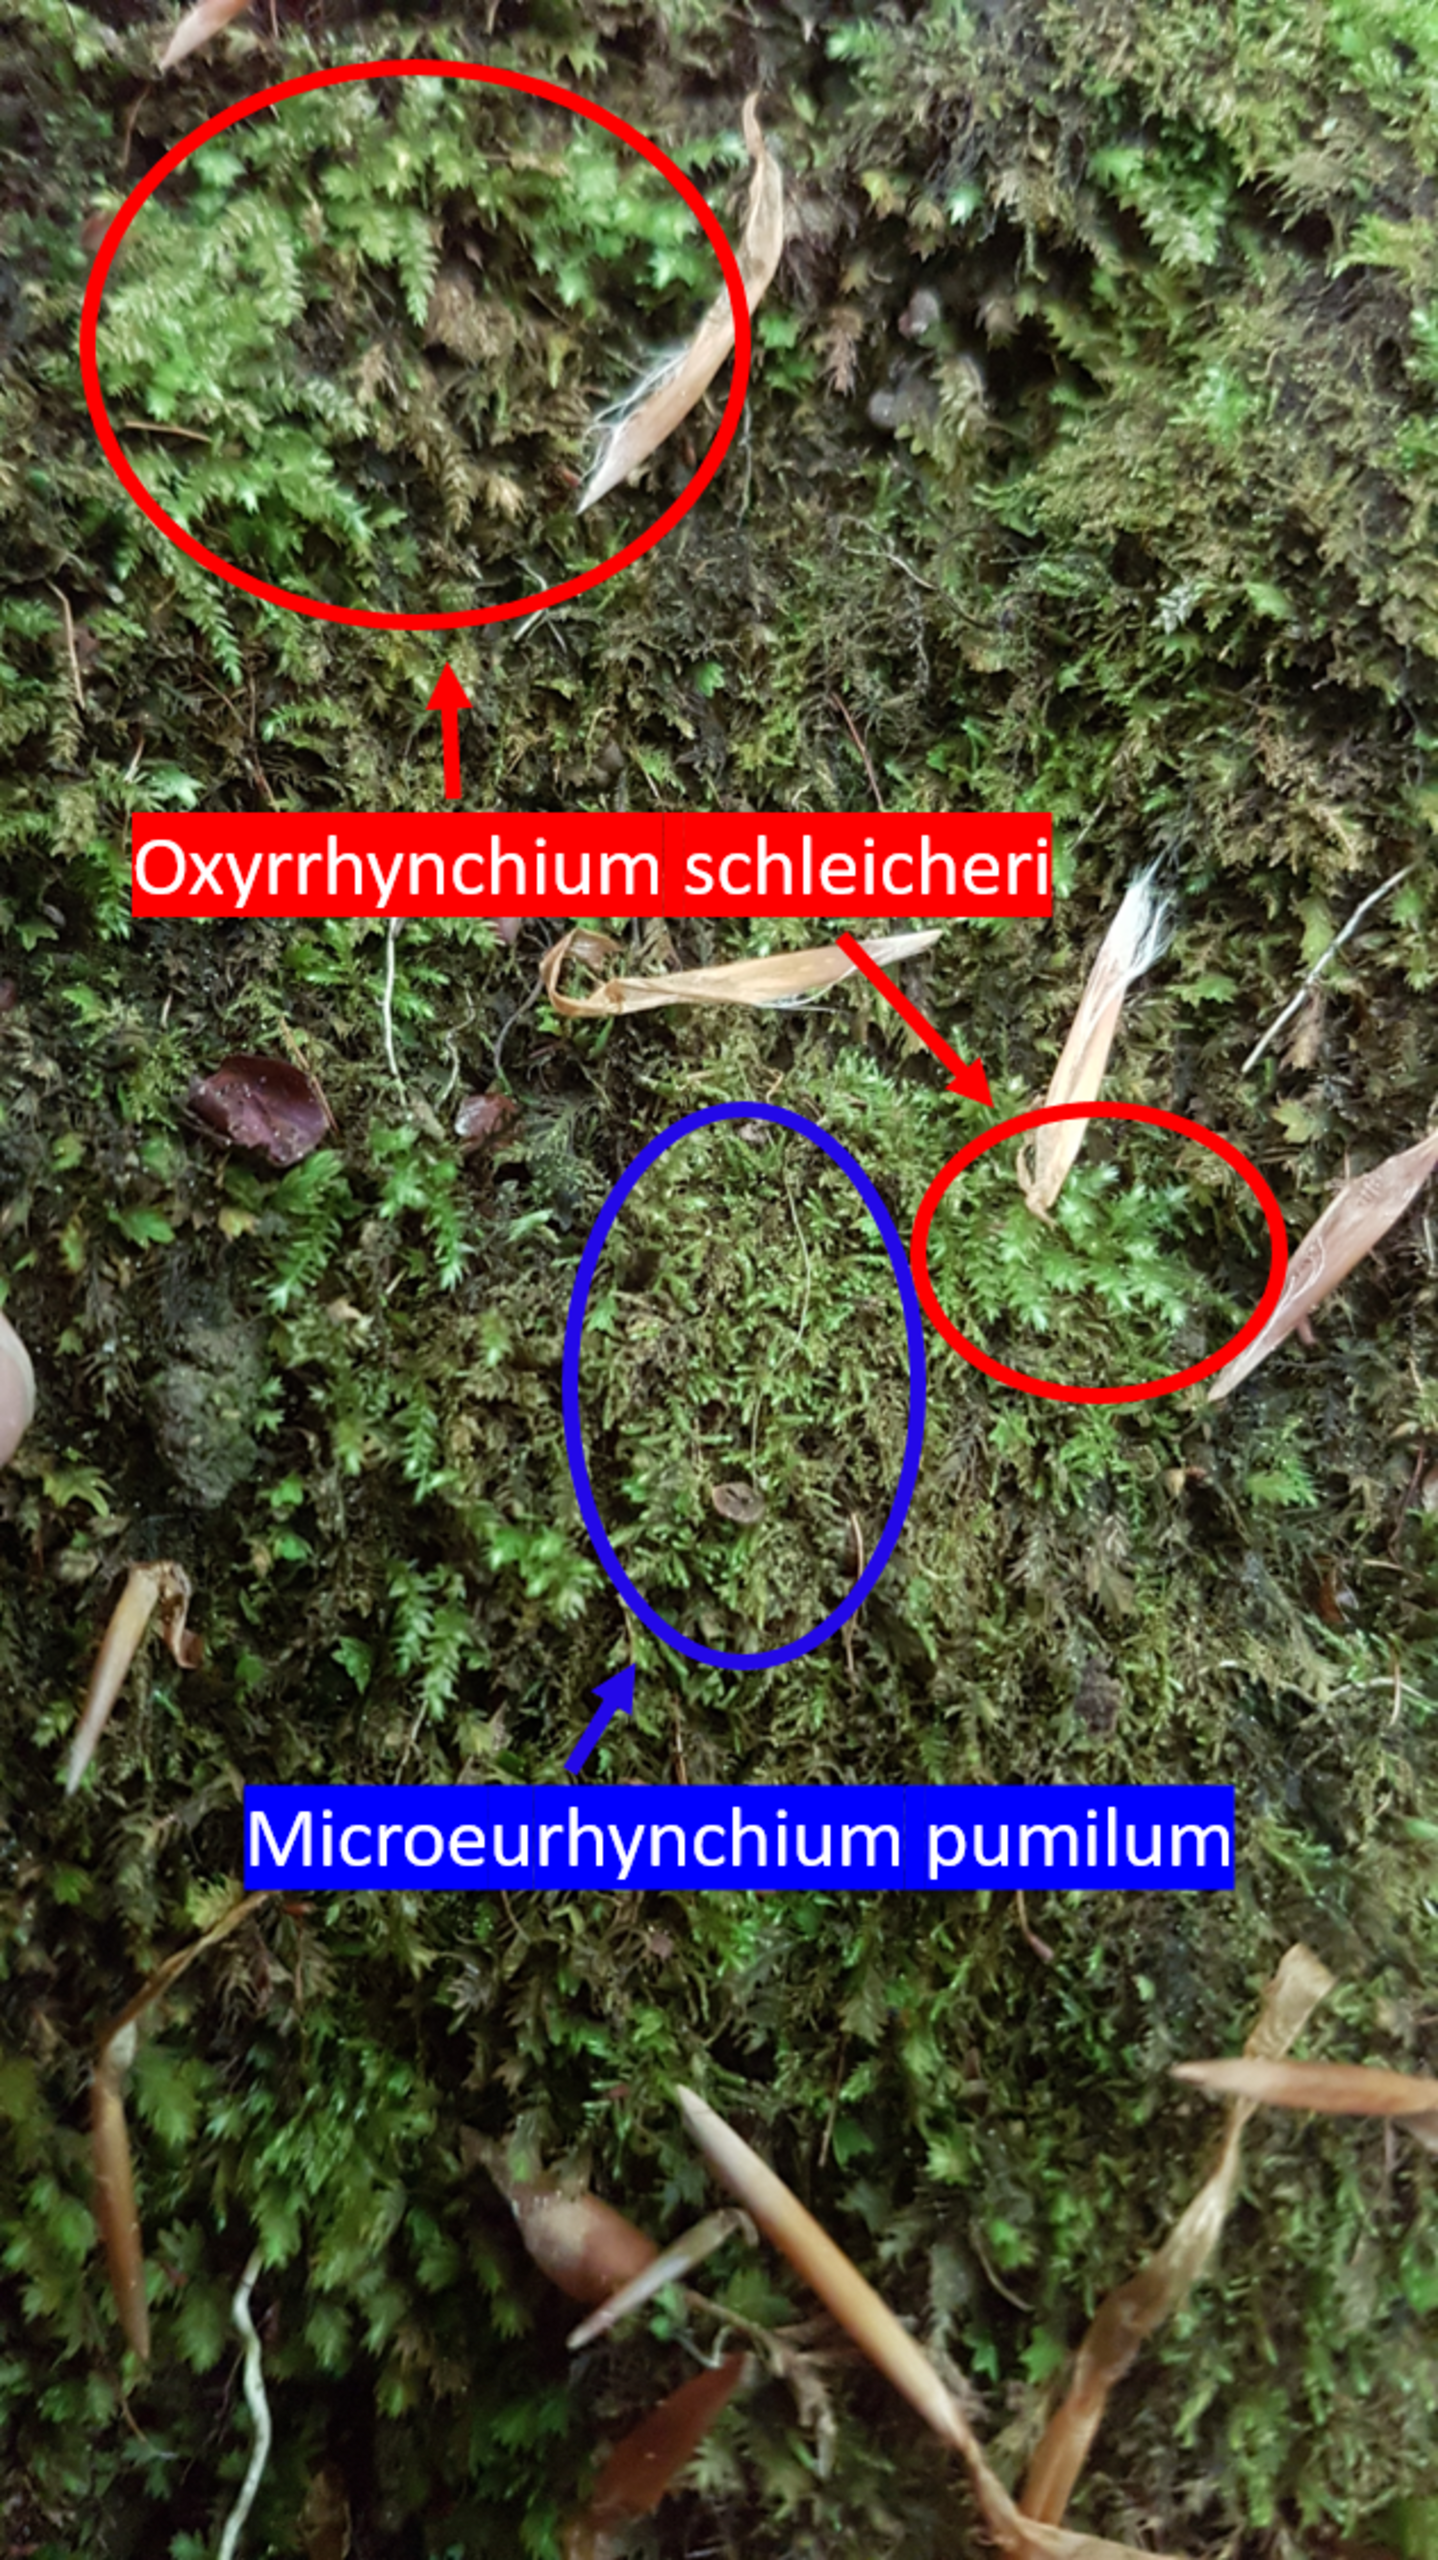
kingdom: Plantae
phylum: Bryophyta
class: Bryopsida
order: Hypnales
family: Brachytheciaceae
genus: Microeurhynchium
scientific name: Microeurhynchium pumilum
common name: Spæd vortetand
